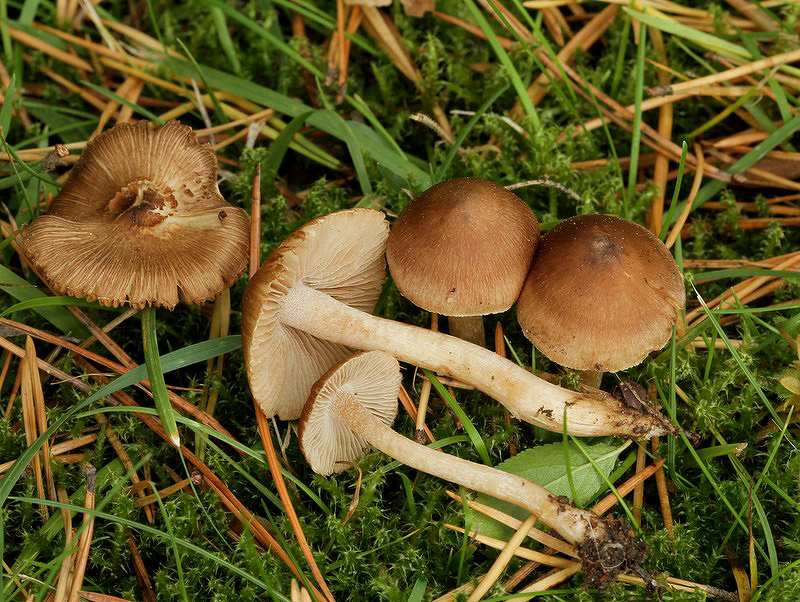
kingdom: Fungi
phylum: Basidiomycota
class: Agaricomycetes
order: Agaricales
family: Inocybaceae
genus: Inocybe
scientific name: Inocybe
